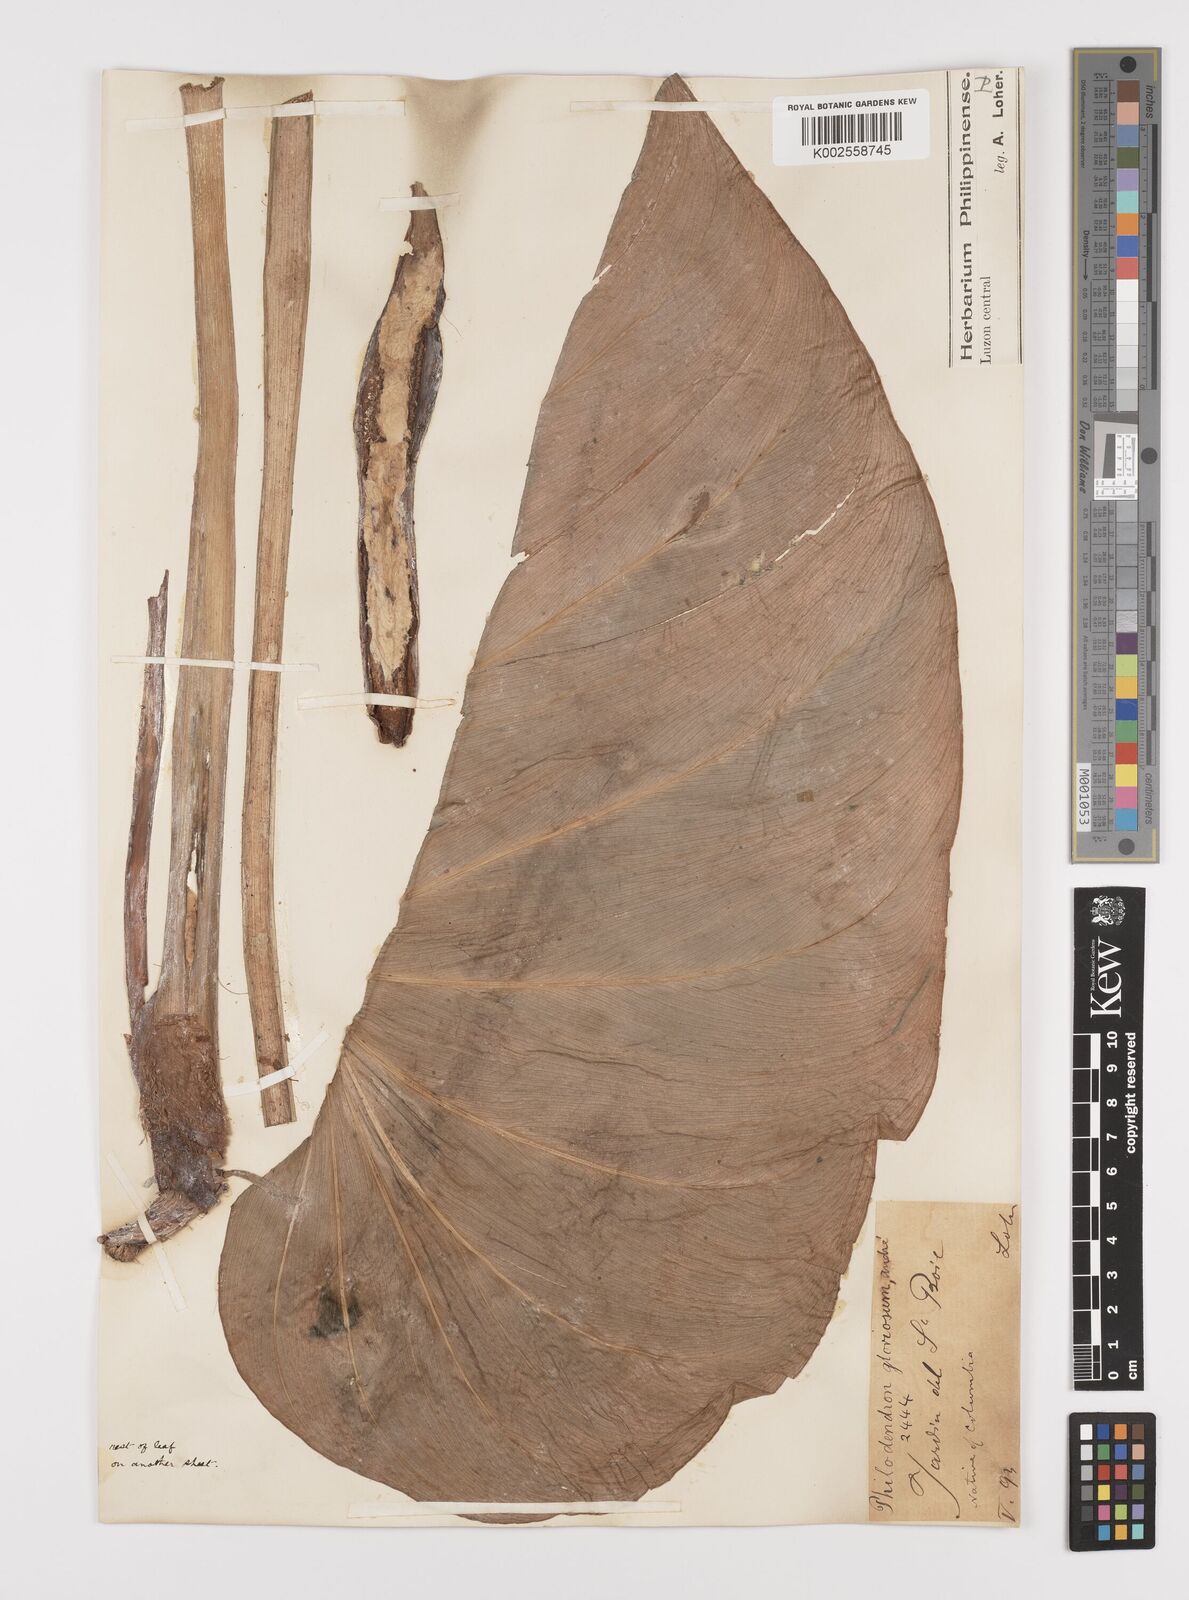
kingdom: Plantae
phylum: Tracheophyta
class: Liliopsida
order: Alismatales
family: Araceae
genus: Philodendron
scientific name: Philodendron jacquinii
